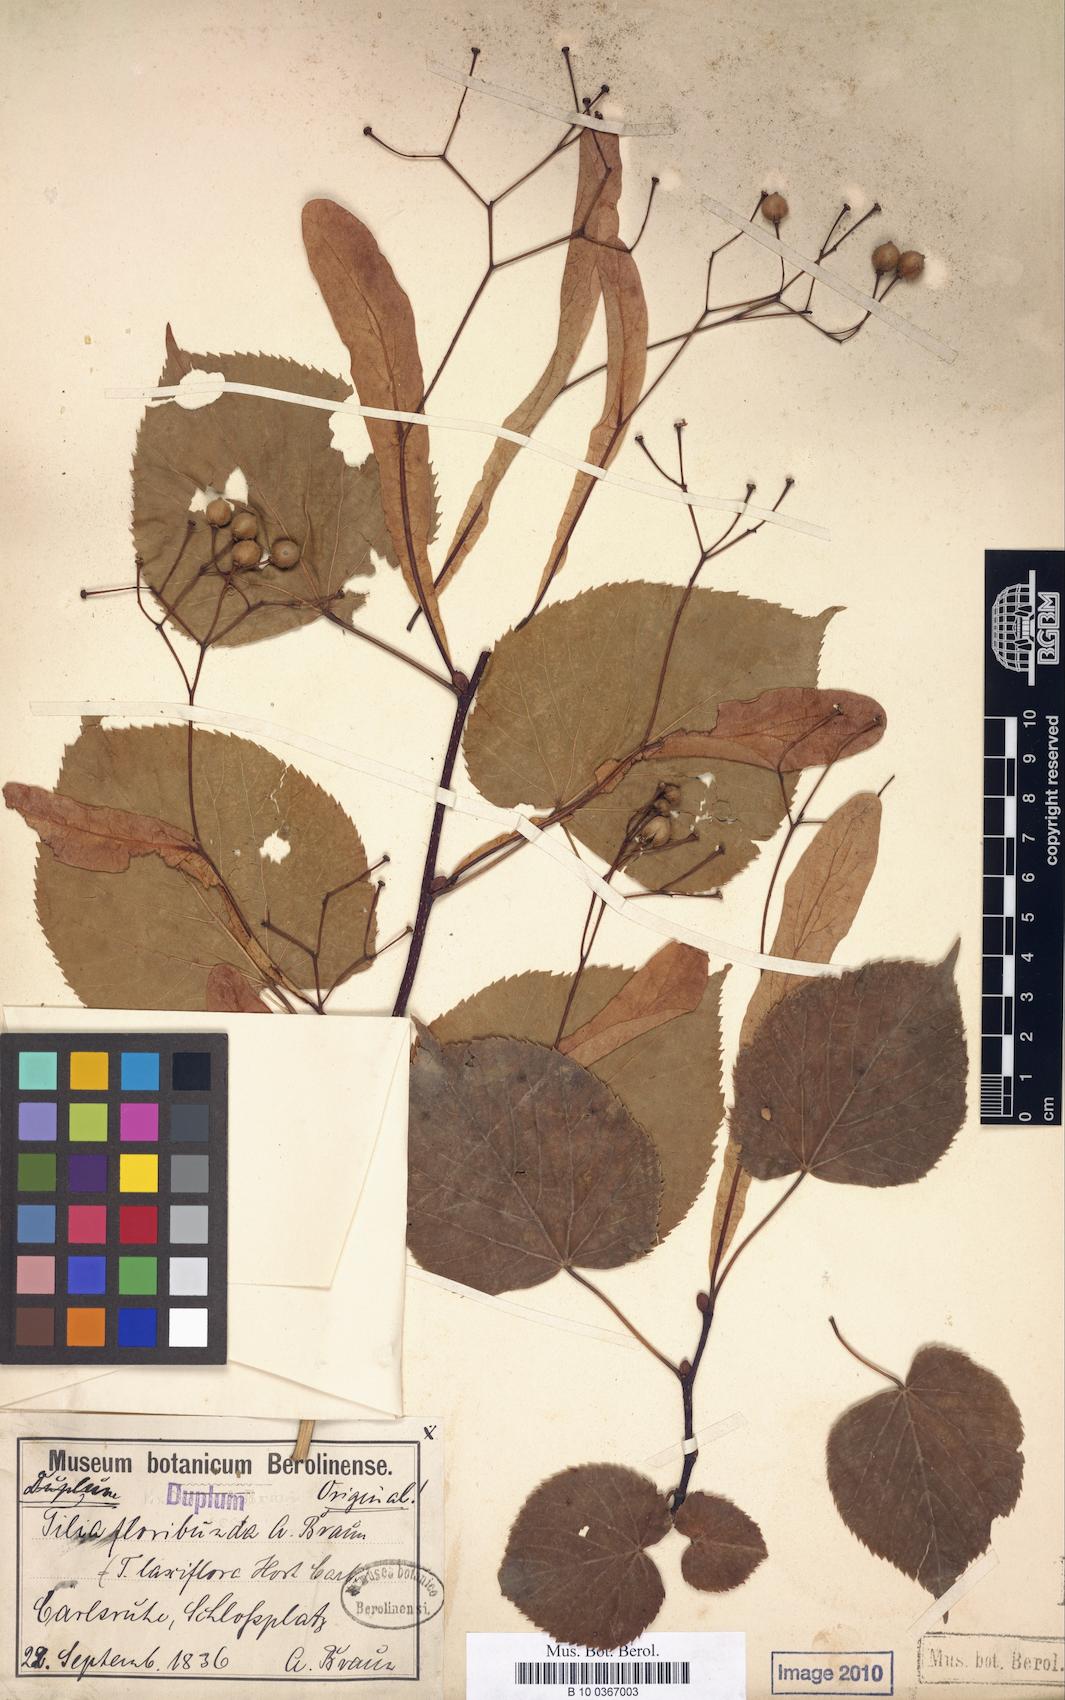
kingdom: Plantae
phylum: Tracheophyta
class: Magnoliopsida
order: Malvales
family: Malvaceae
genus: Tilia
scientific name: Tilia flavescens
